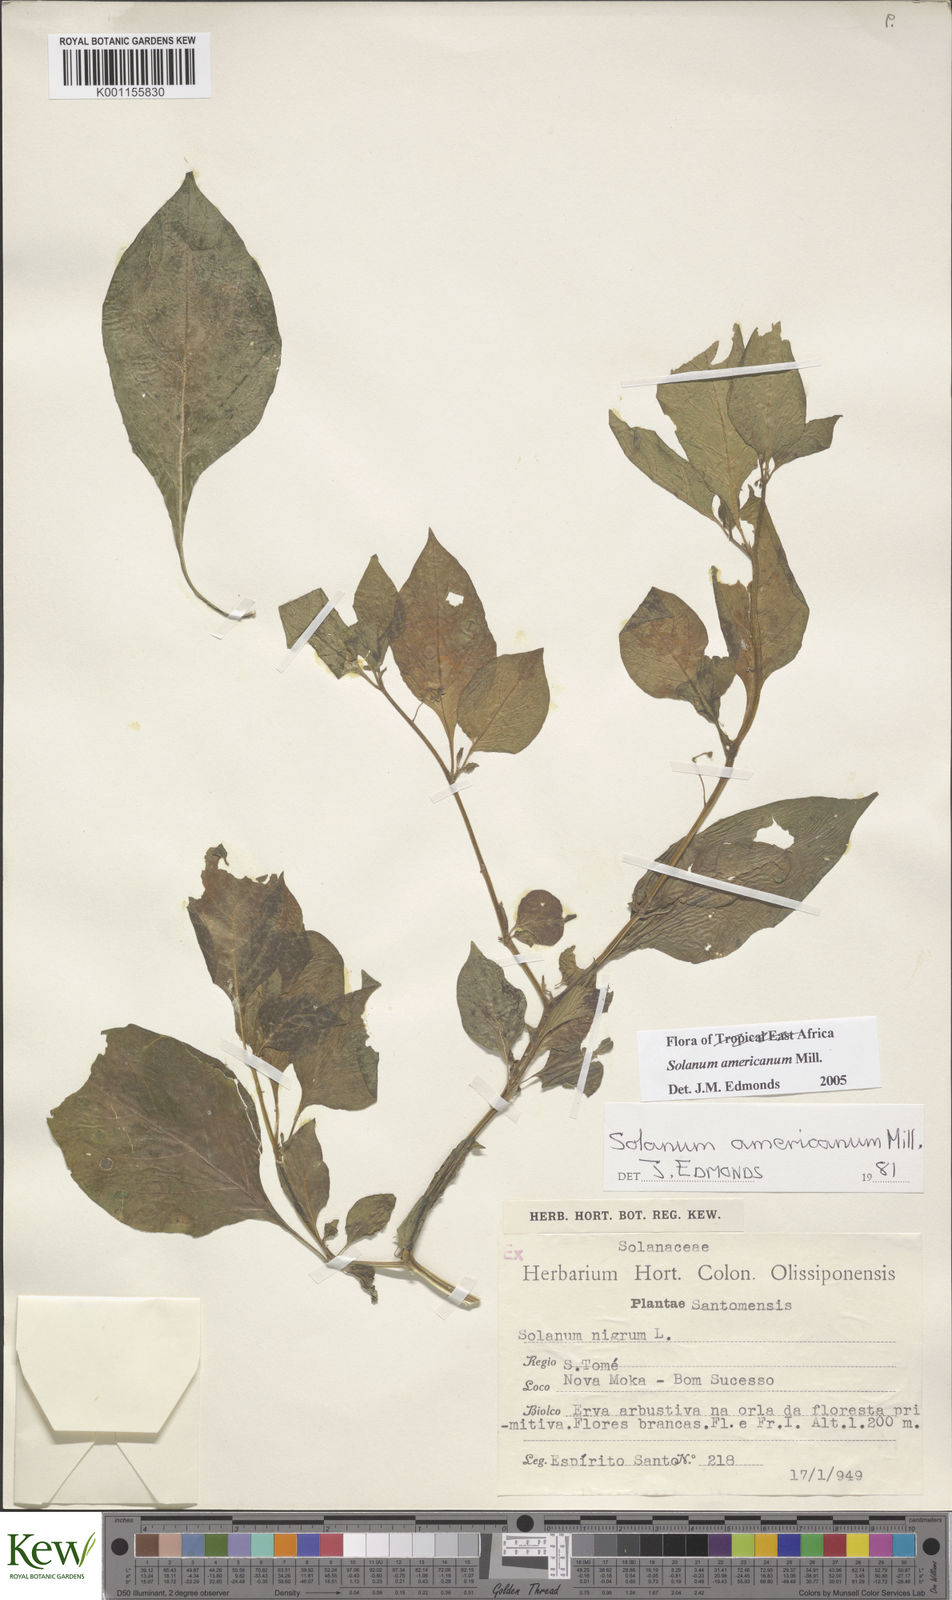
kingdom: Plantae
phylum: Tracheophyta
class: Magnoliopsida
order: Solanales
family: Solanaceae
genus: Solanum
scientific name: Solanum scabrum
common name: Garden-huckleberry
